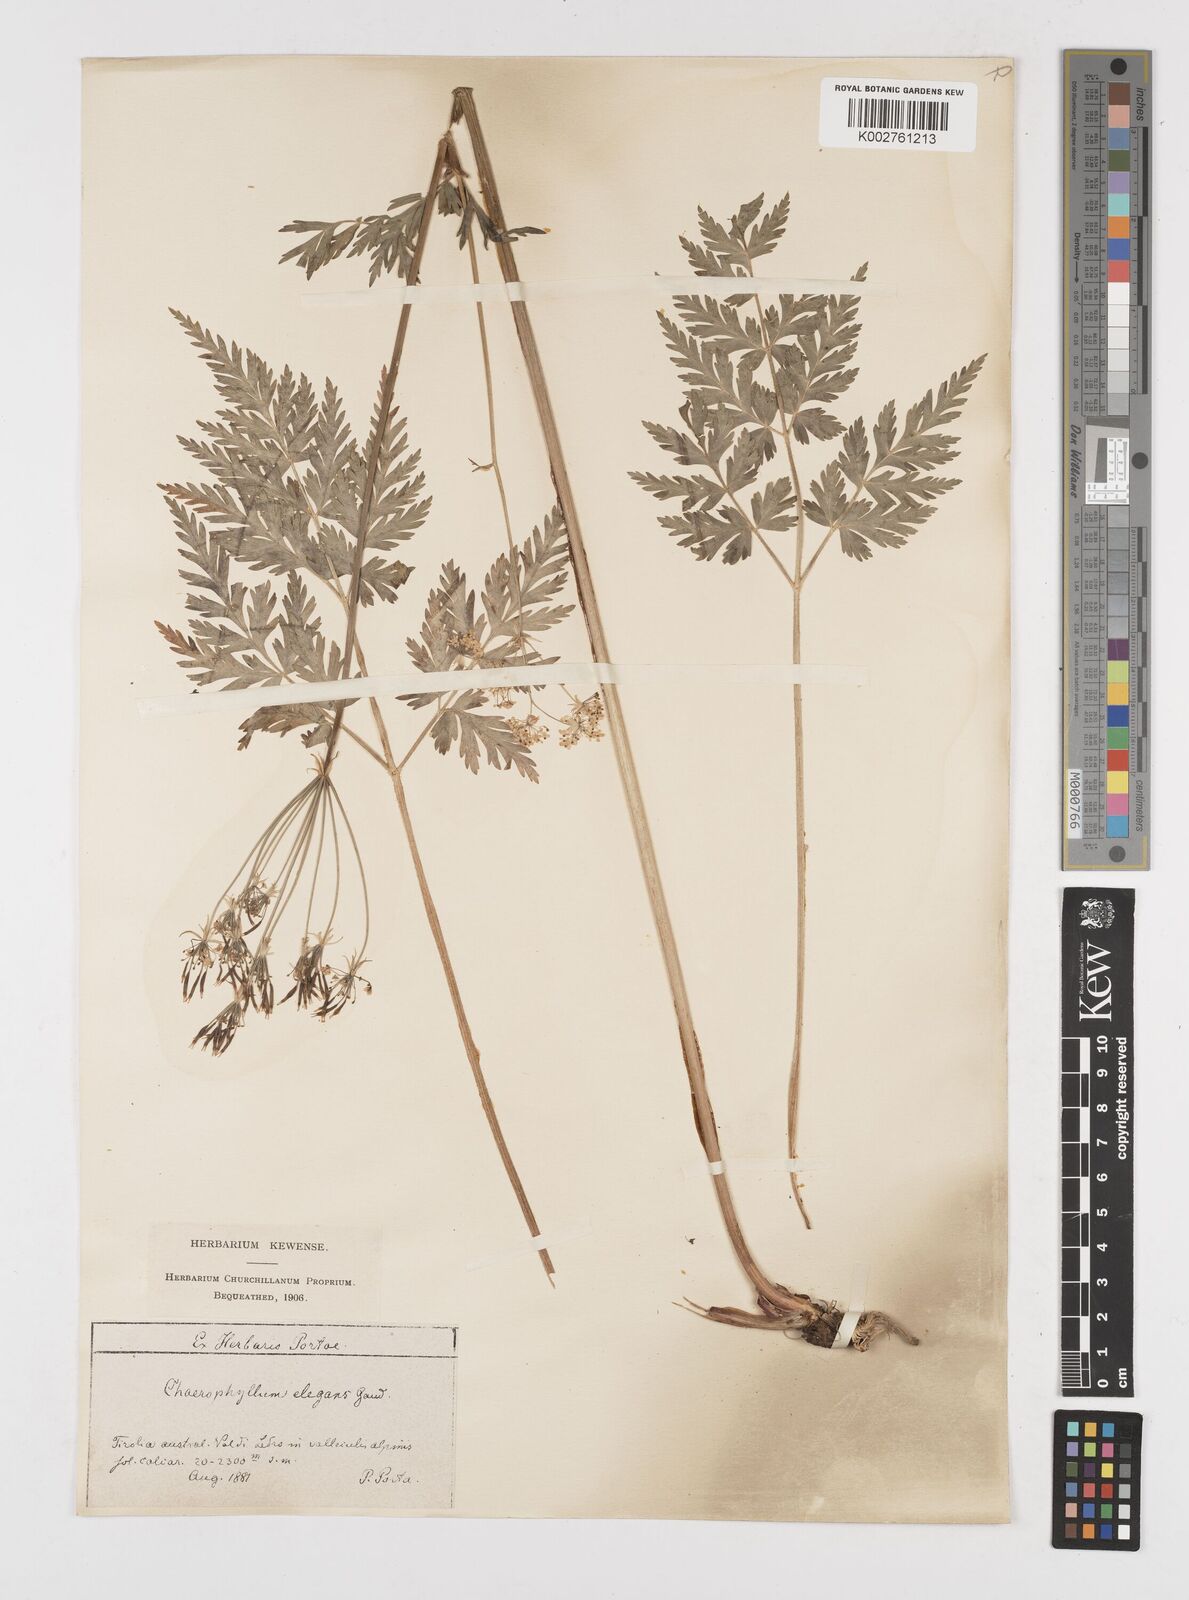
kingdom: Plantae
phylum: Tracheophyta
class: Magnoliopsida
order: Apiales
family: Apiaceae
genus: Chaerophyllum
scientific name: Chaerophyllum elegans
